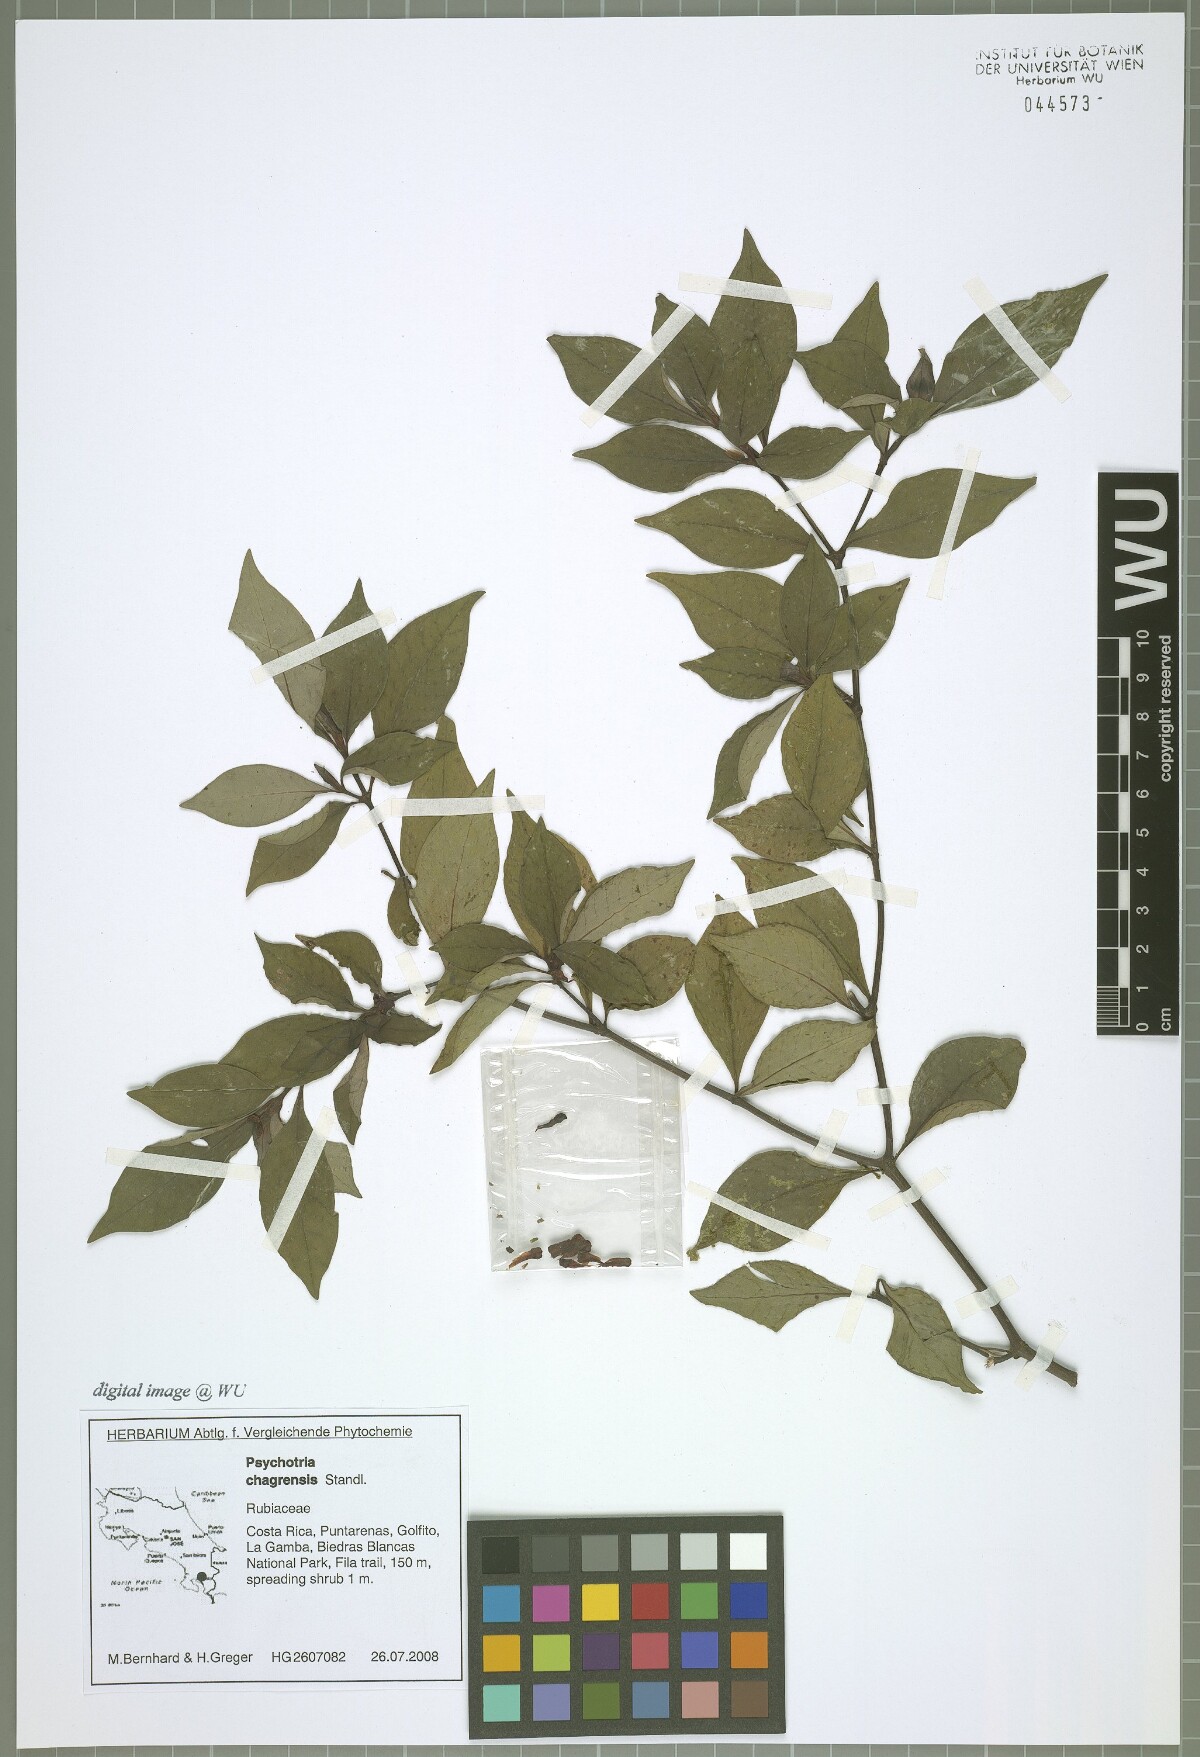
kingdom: Plantae
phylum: Tracheophyta
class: Magnoliopsida
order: Gentianales
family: Rubiaceae
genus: Psychotria
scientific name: Psychotria chagrensis
